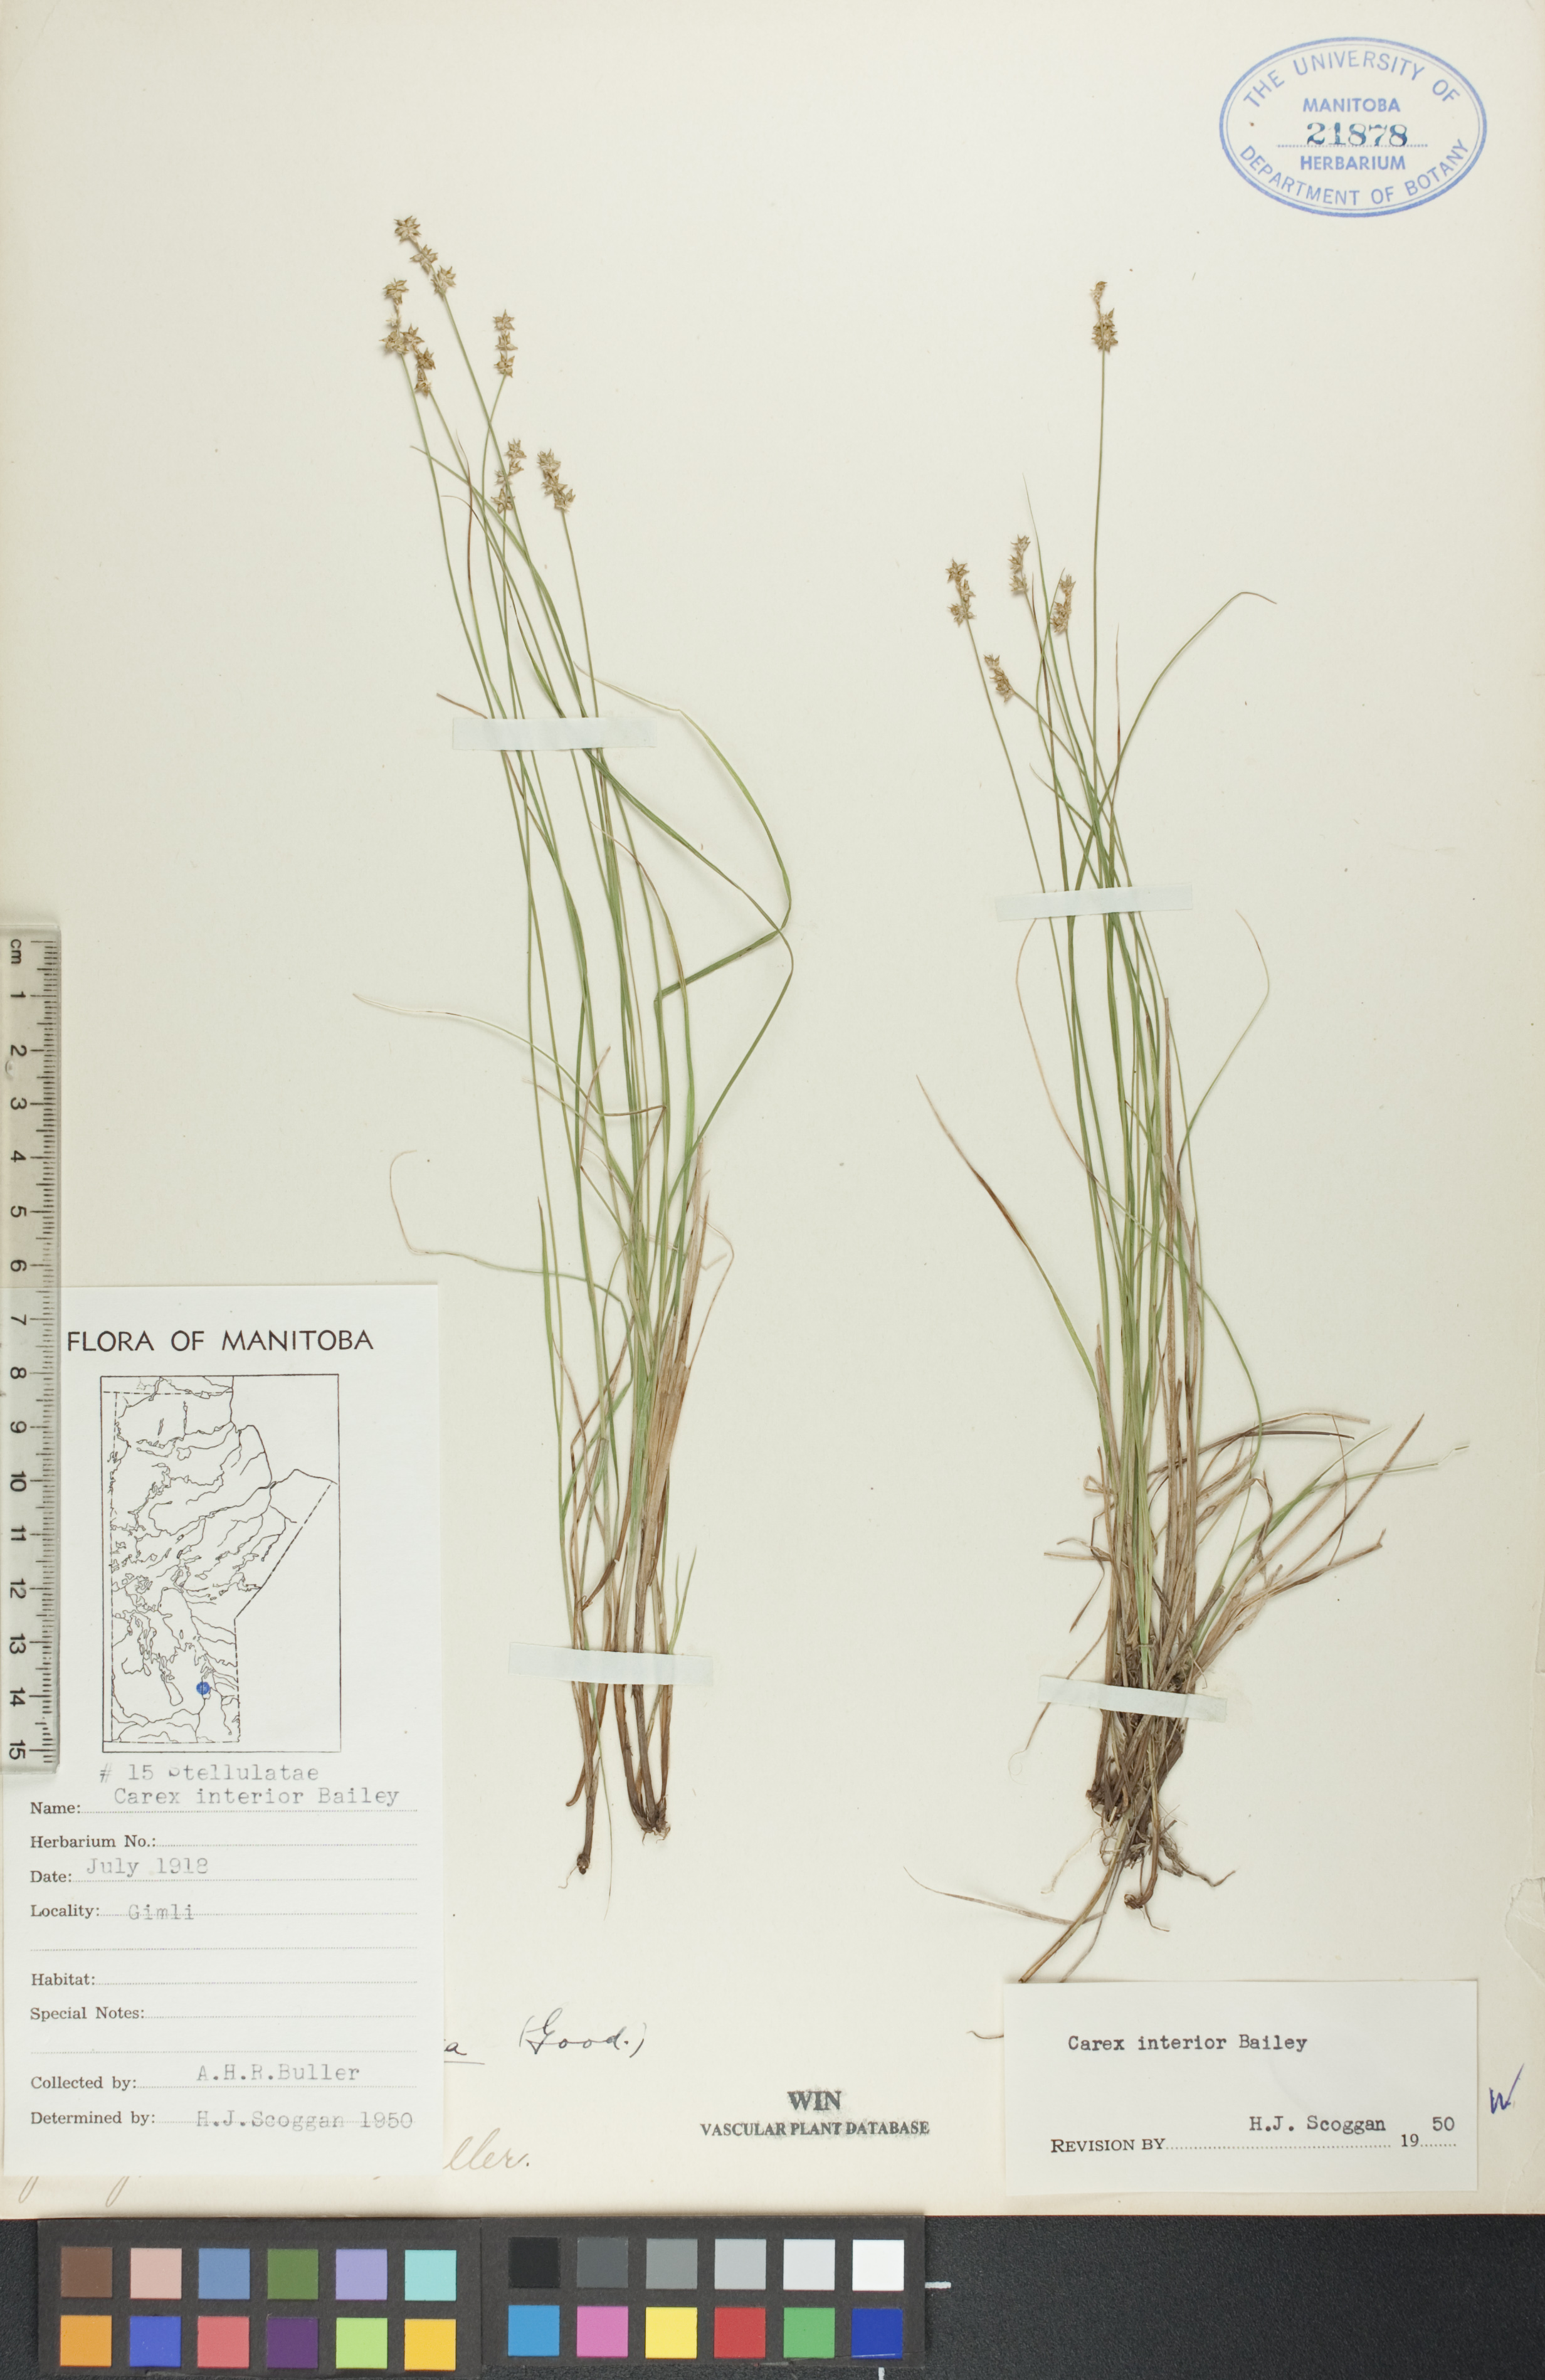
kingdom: Plantae
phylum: Tracheophyta
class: Liliopsida
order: Poales
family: Cyperaceae
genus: Carex
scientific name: Carex interior
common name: Inland sedge
